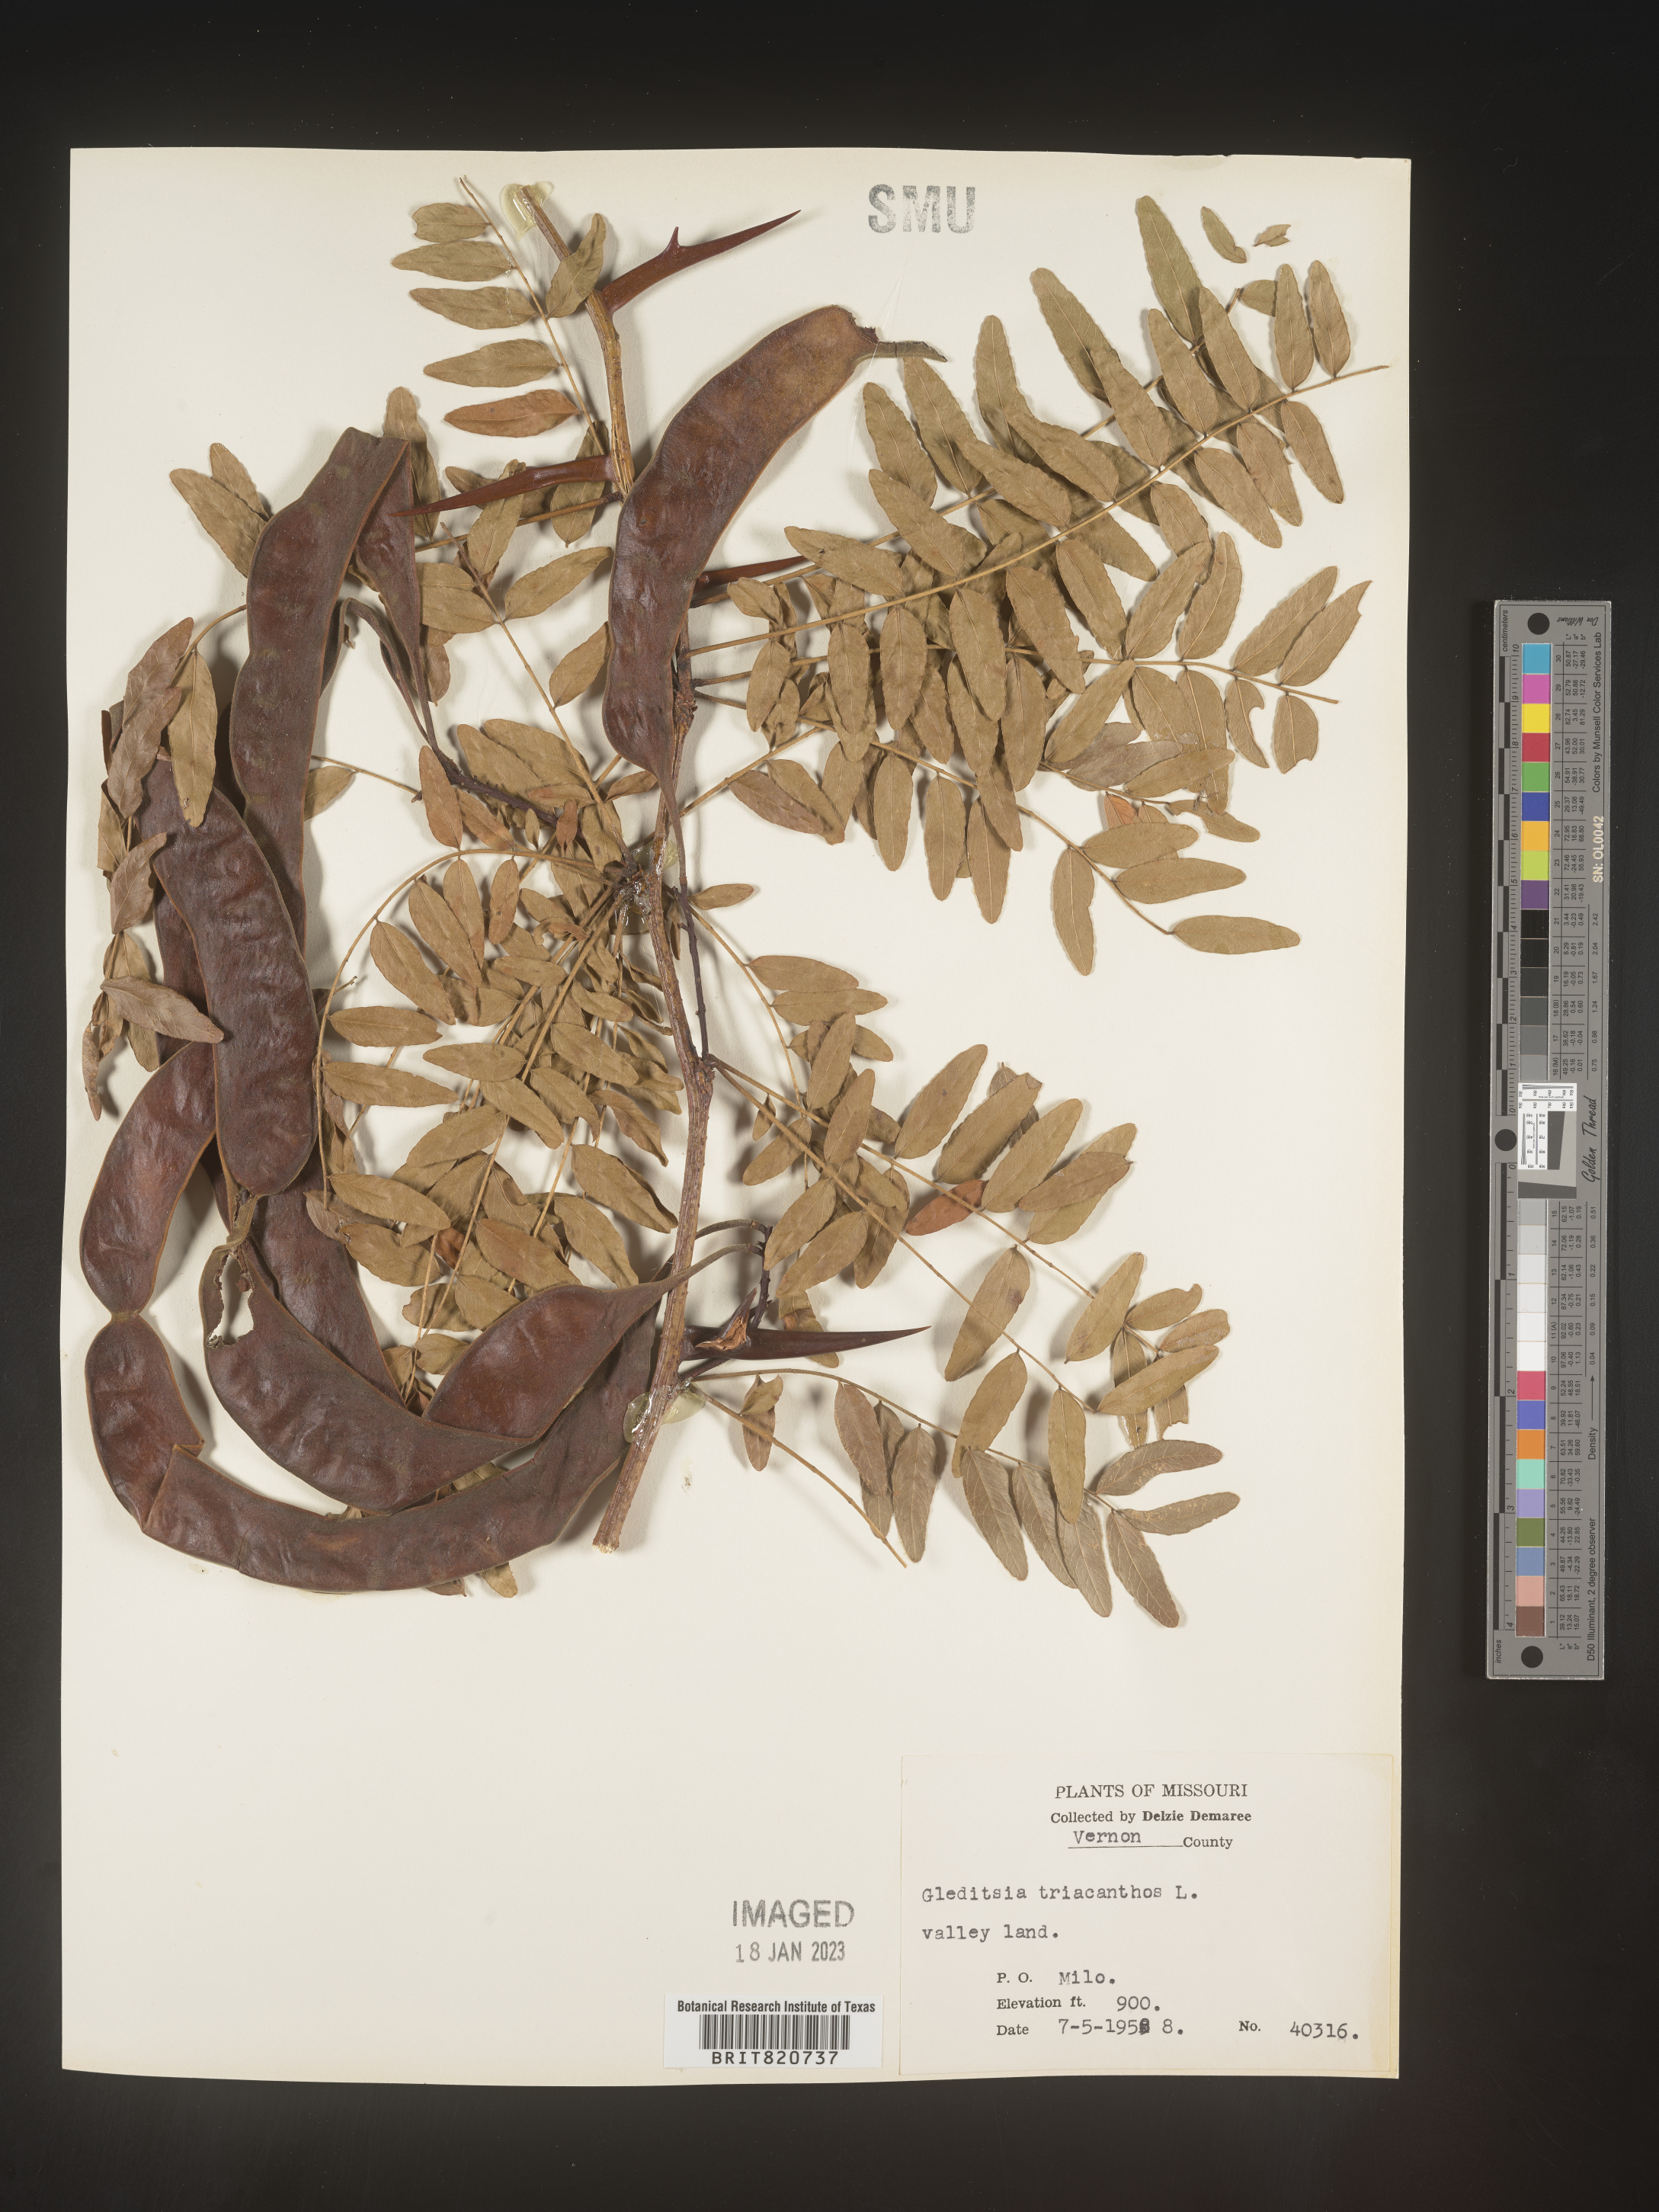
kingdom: Plantae
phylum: Tracheophyta
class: Magnoliopsida
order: Fabales
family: Fabaceae
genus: Gleditsia
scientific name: Gleditsia triacanthos
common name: Common honeylocust
